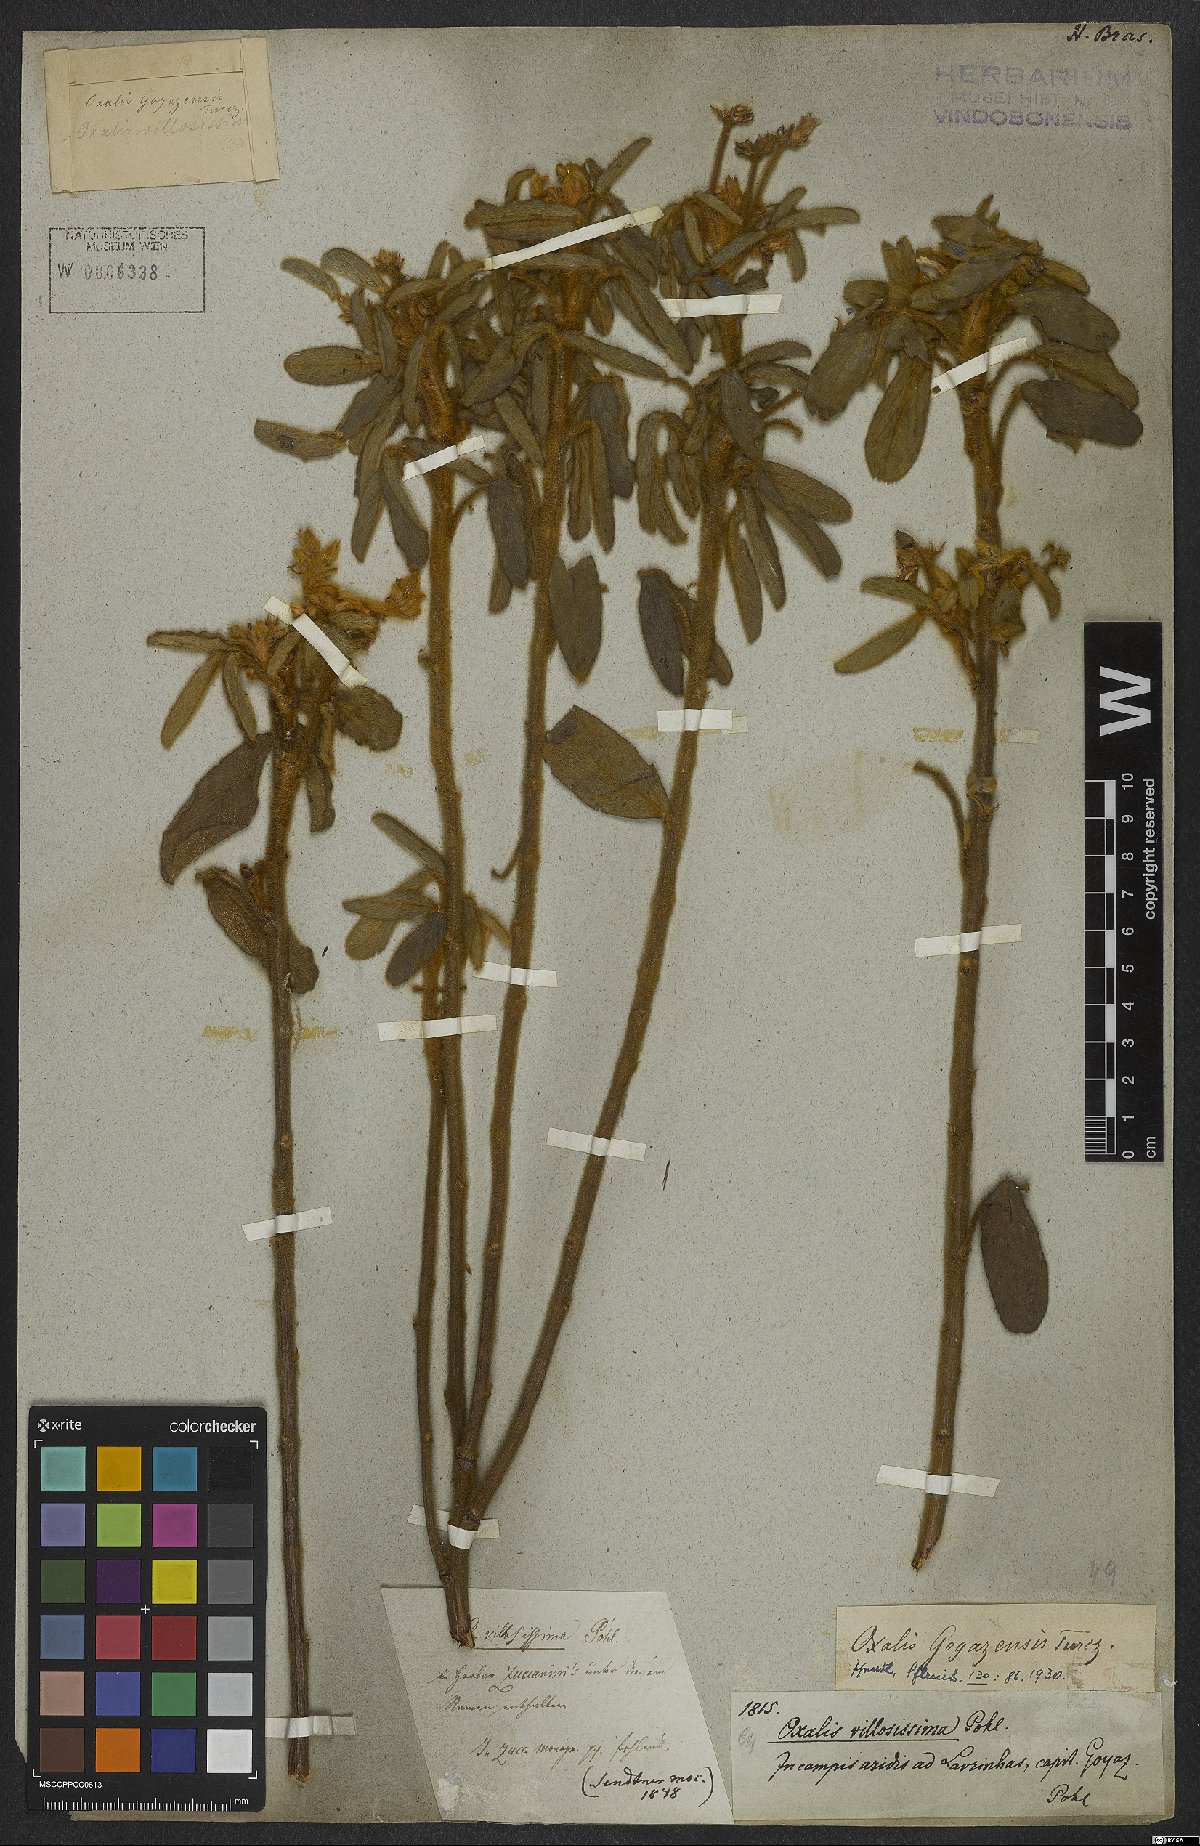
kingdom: Plantae
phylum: Tracheophyta
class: Magnoliopsida
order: Oxalidales
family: Oxalidaceae
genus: Oxalis
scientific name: Oxalis goyazensis
